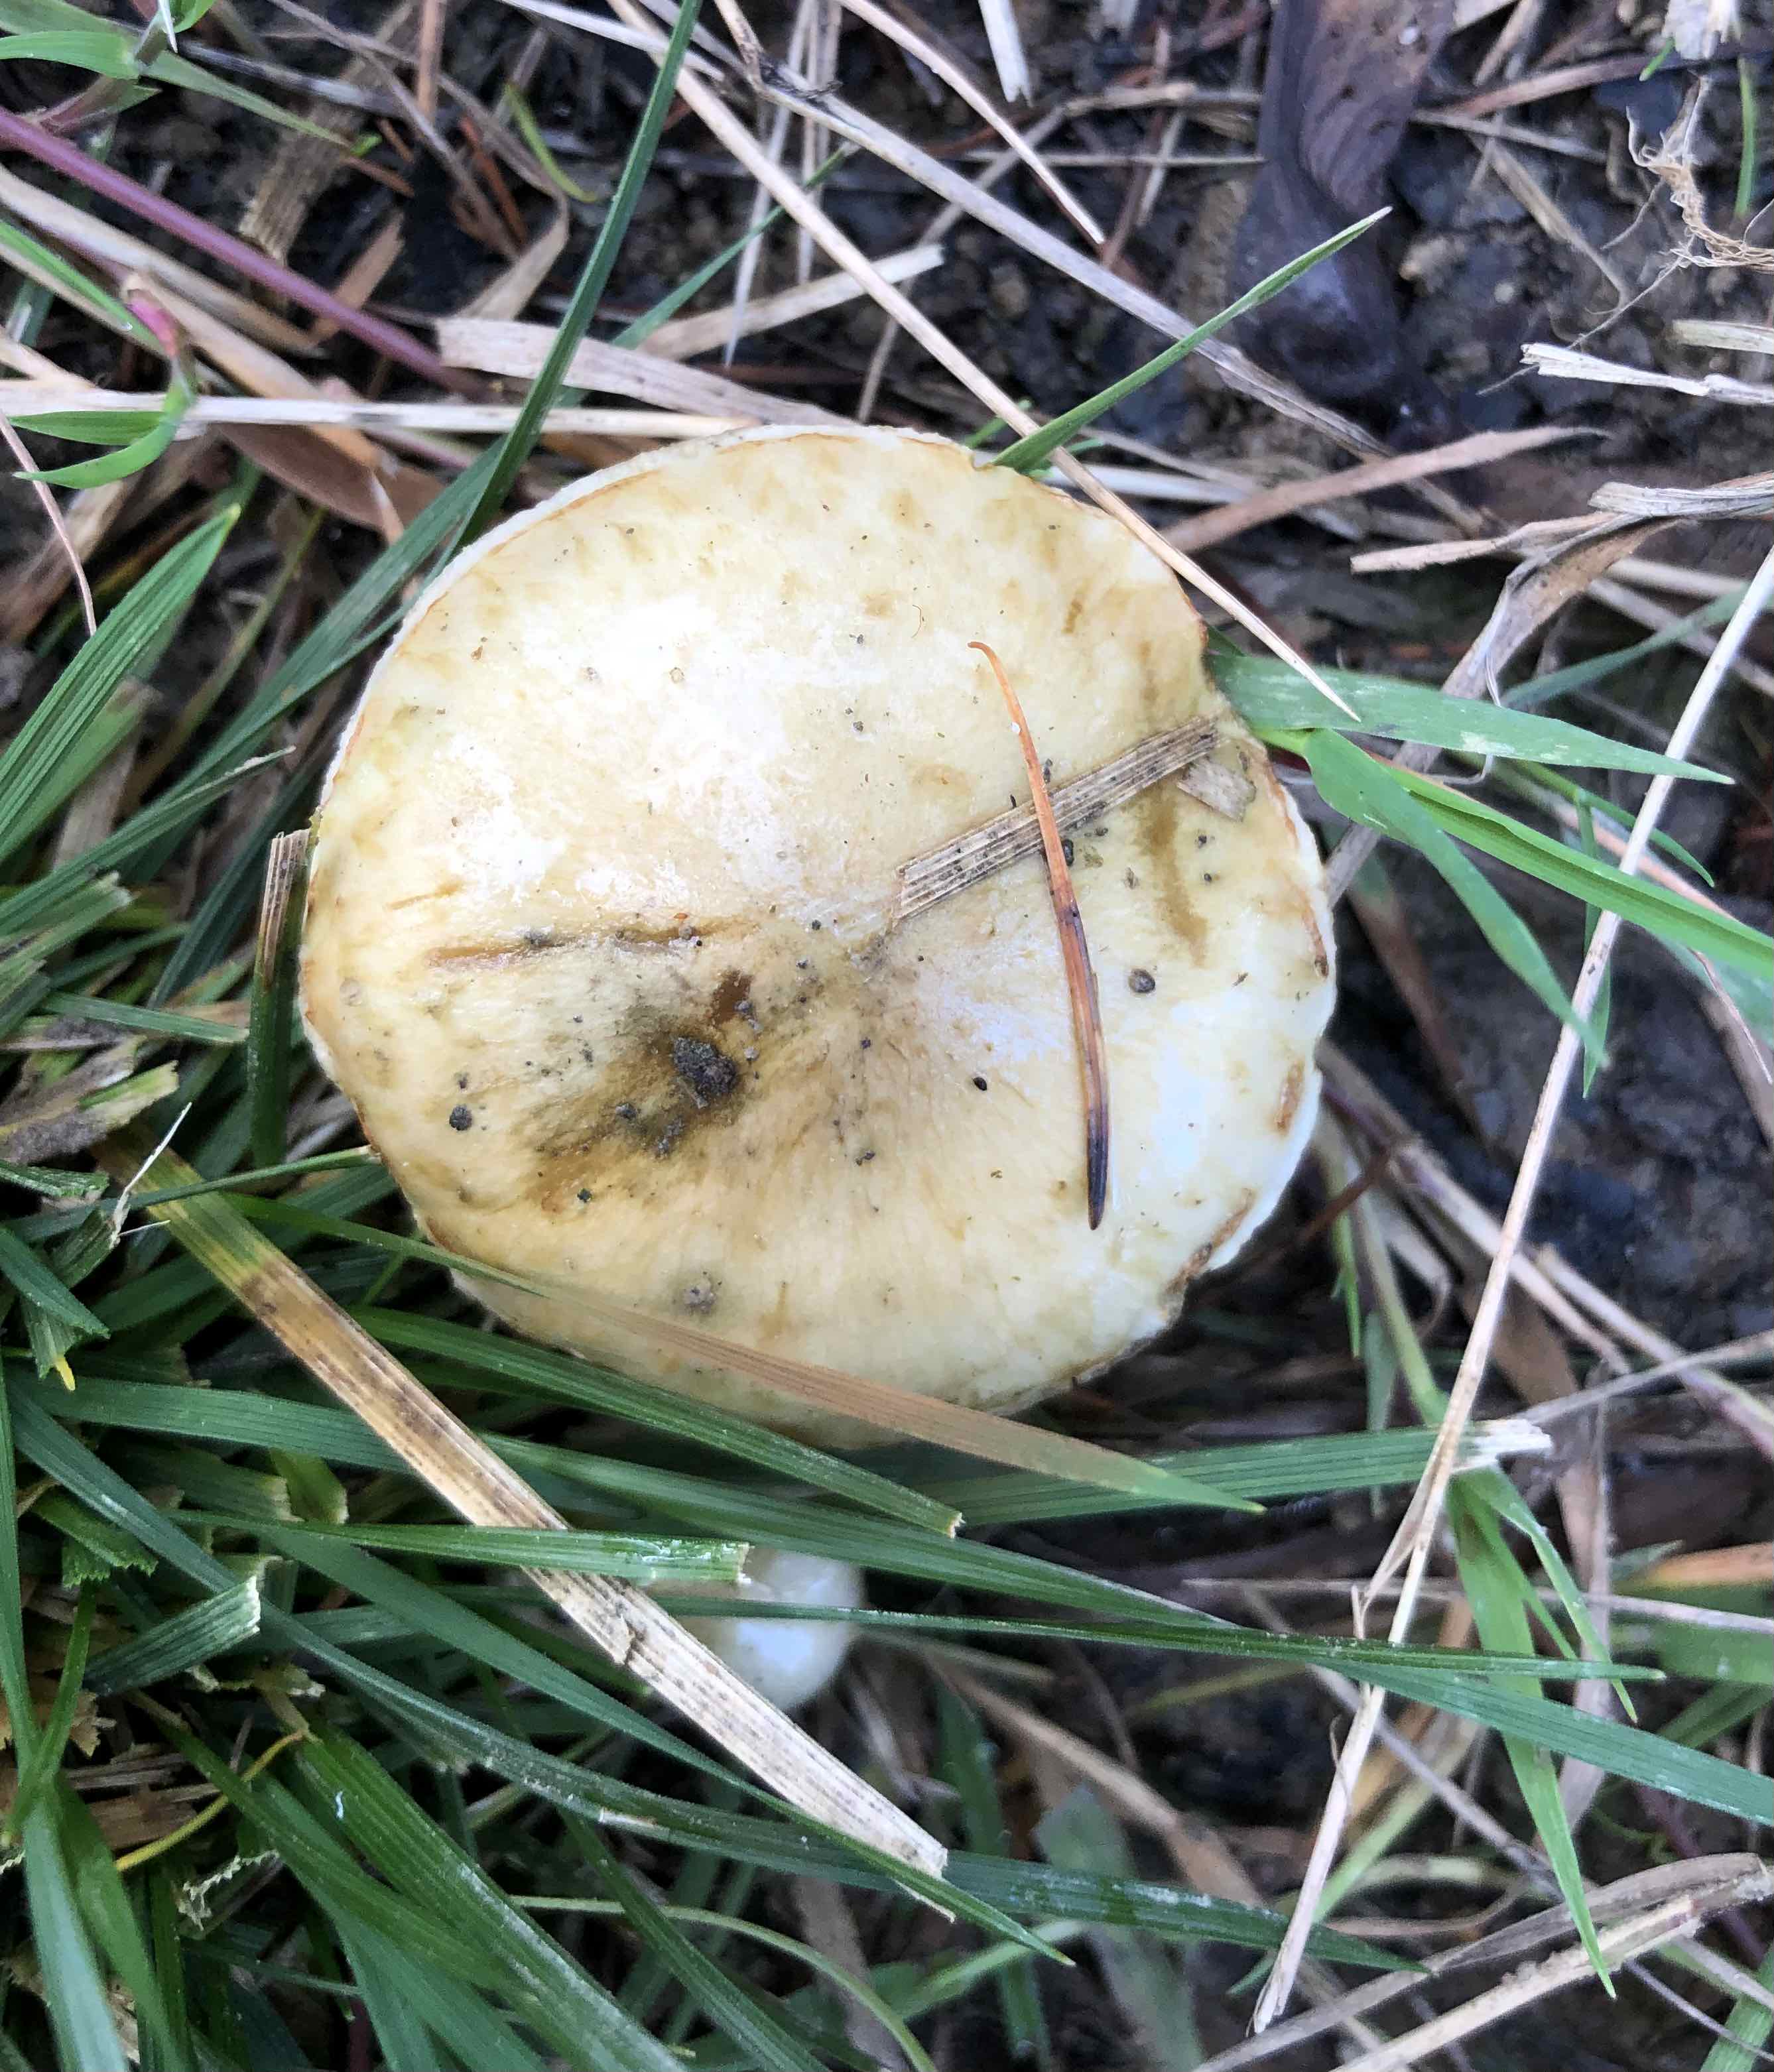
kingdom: Fungi
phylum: Basidiomycota
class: Agaricomycetes
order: Agaricales
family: Strophariaceae
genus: Pholiota
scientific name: Pholiota
